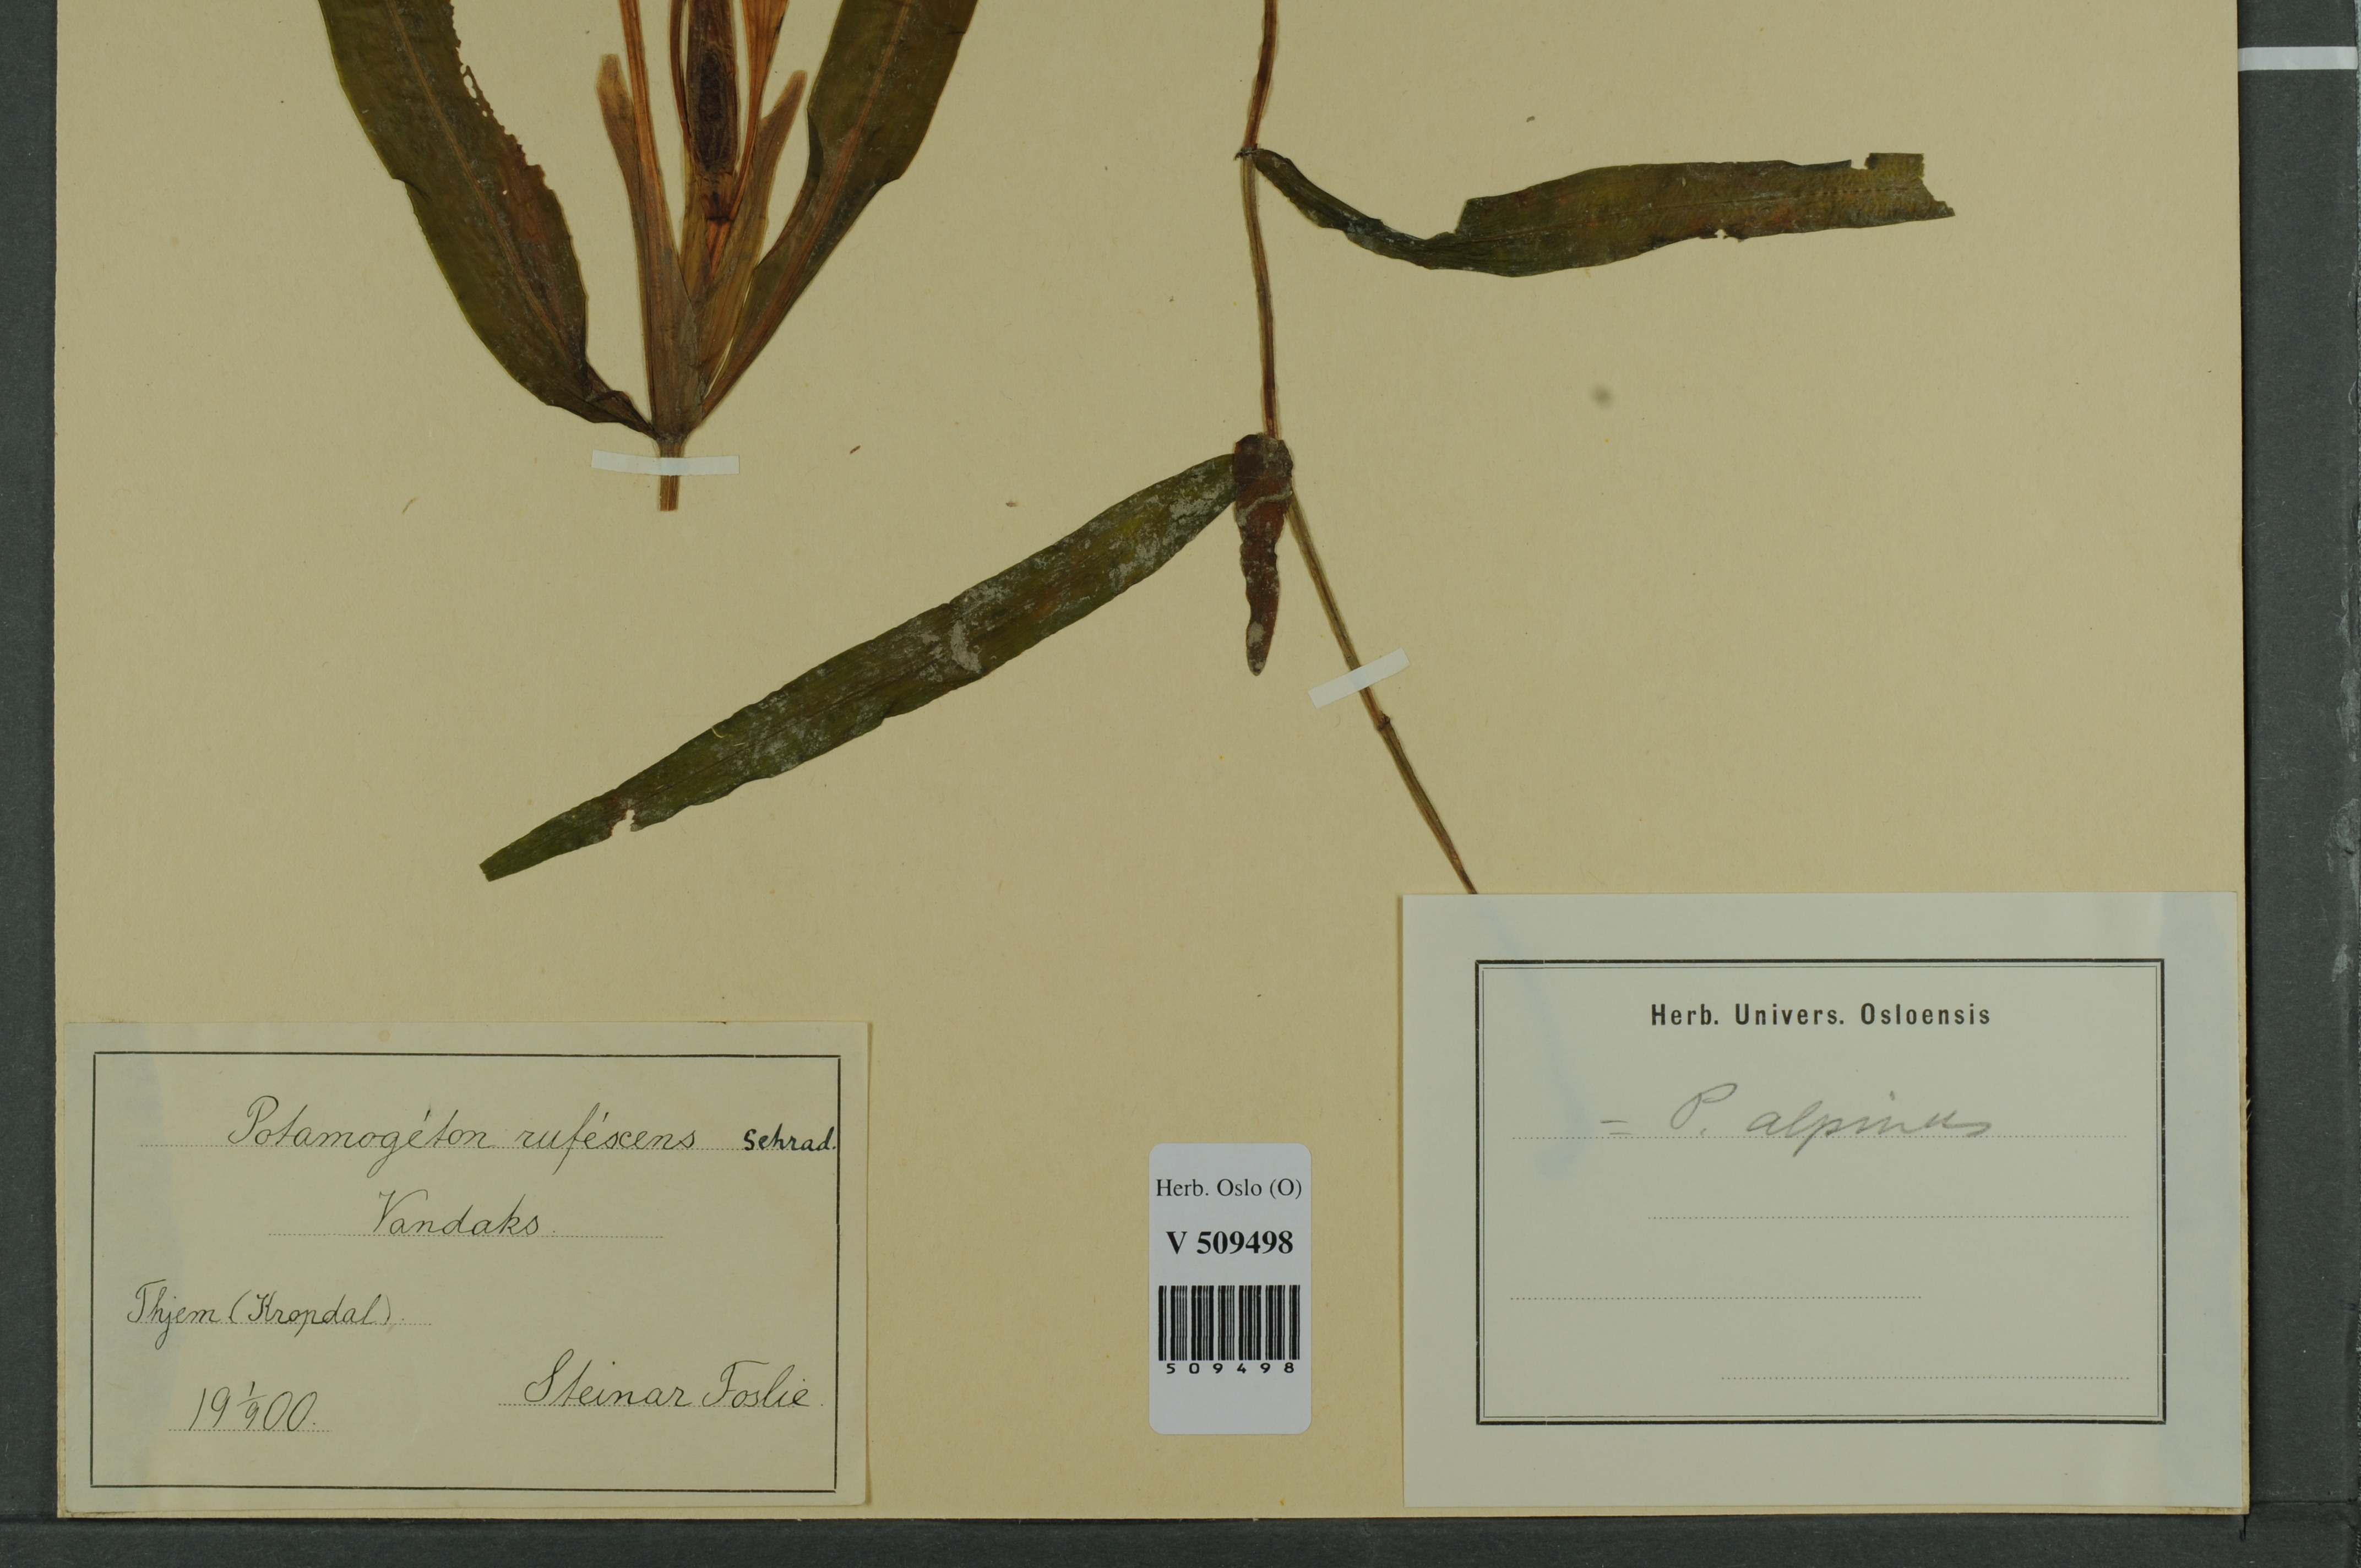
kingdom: Plantae
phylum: Tracheophyta
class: Liliopsida
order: Alismatales
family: Potamogetonaceae
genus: Potamogeton
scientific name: Potamogeton alpinus
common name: Red pondweed
